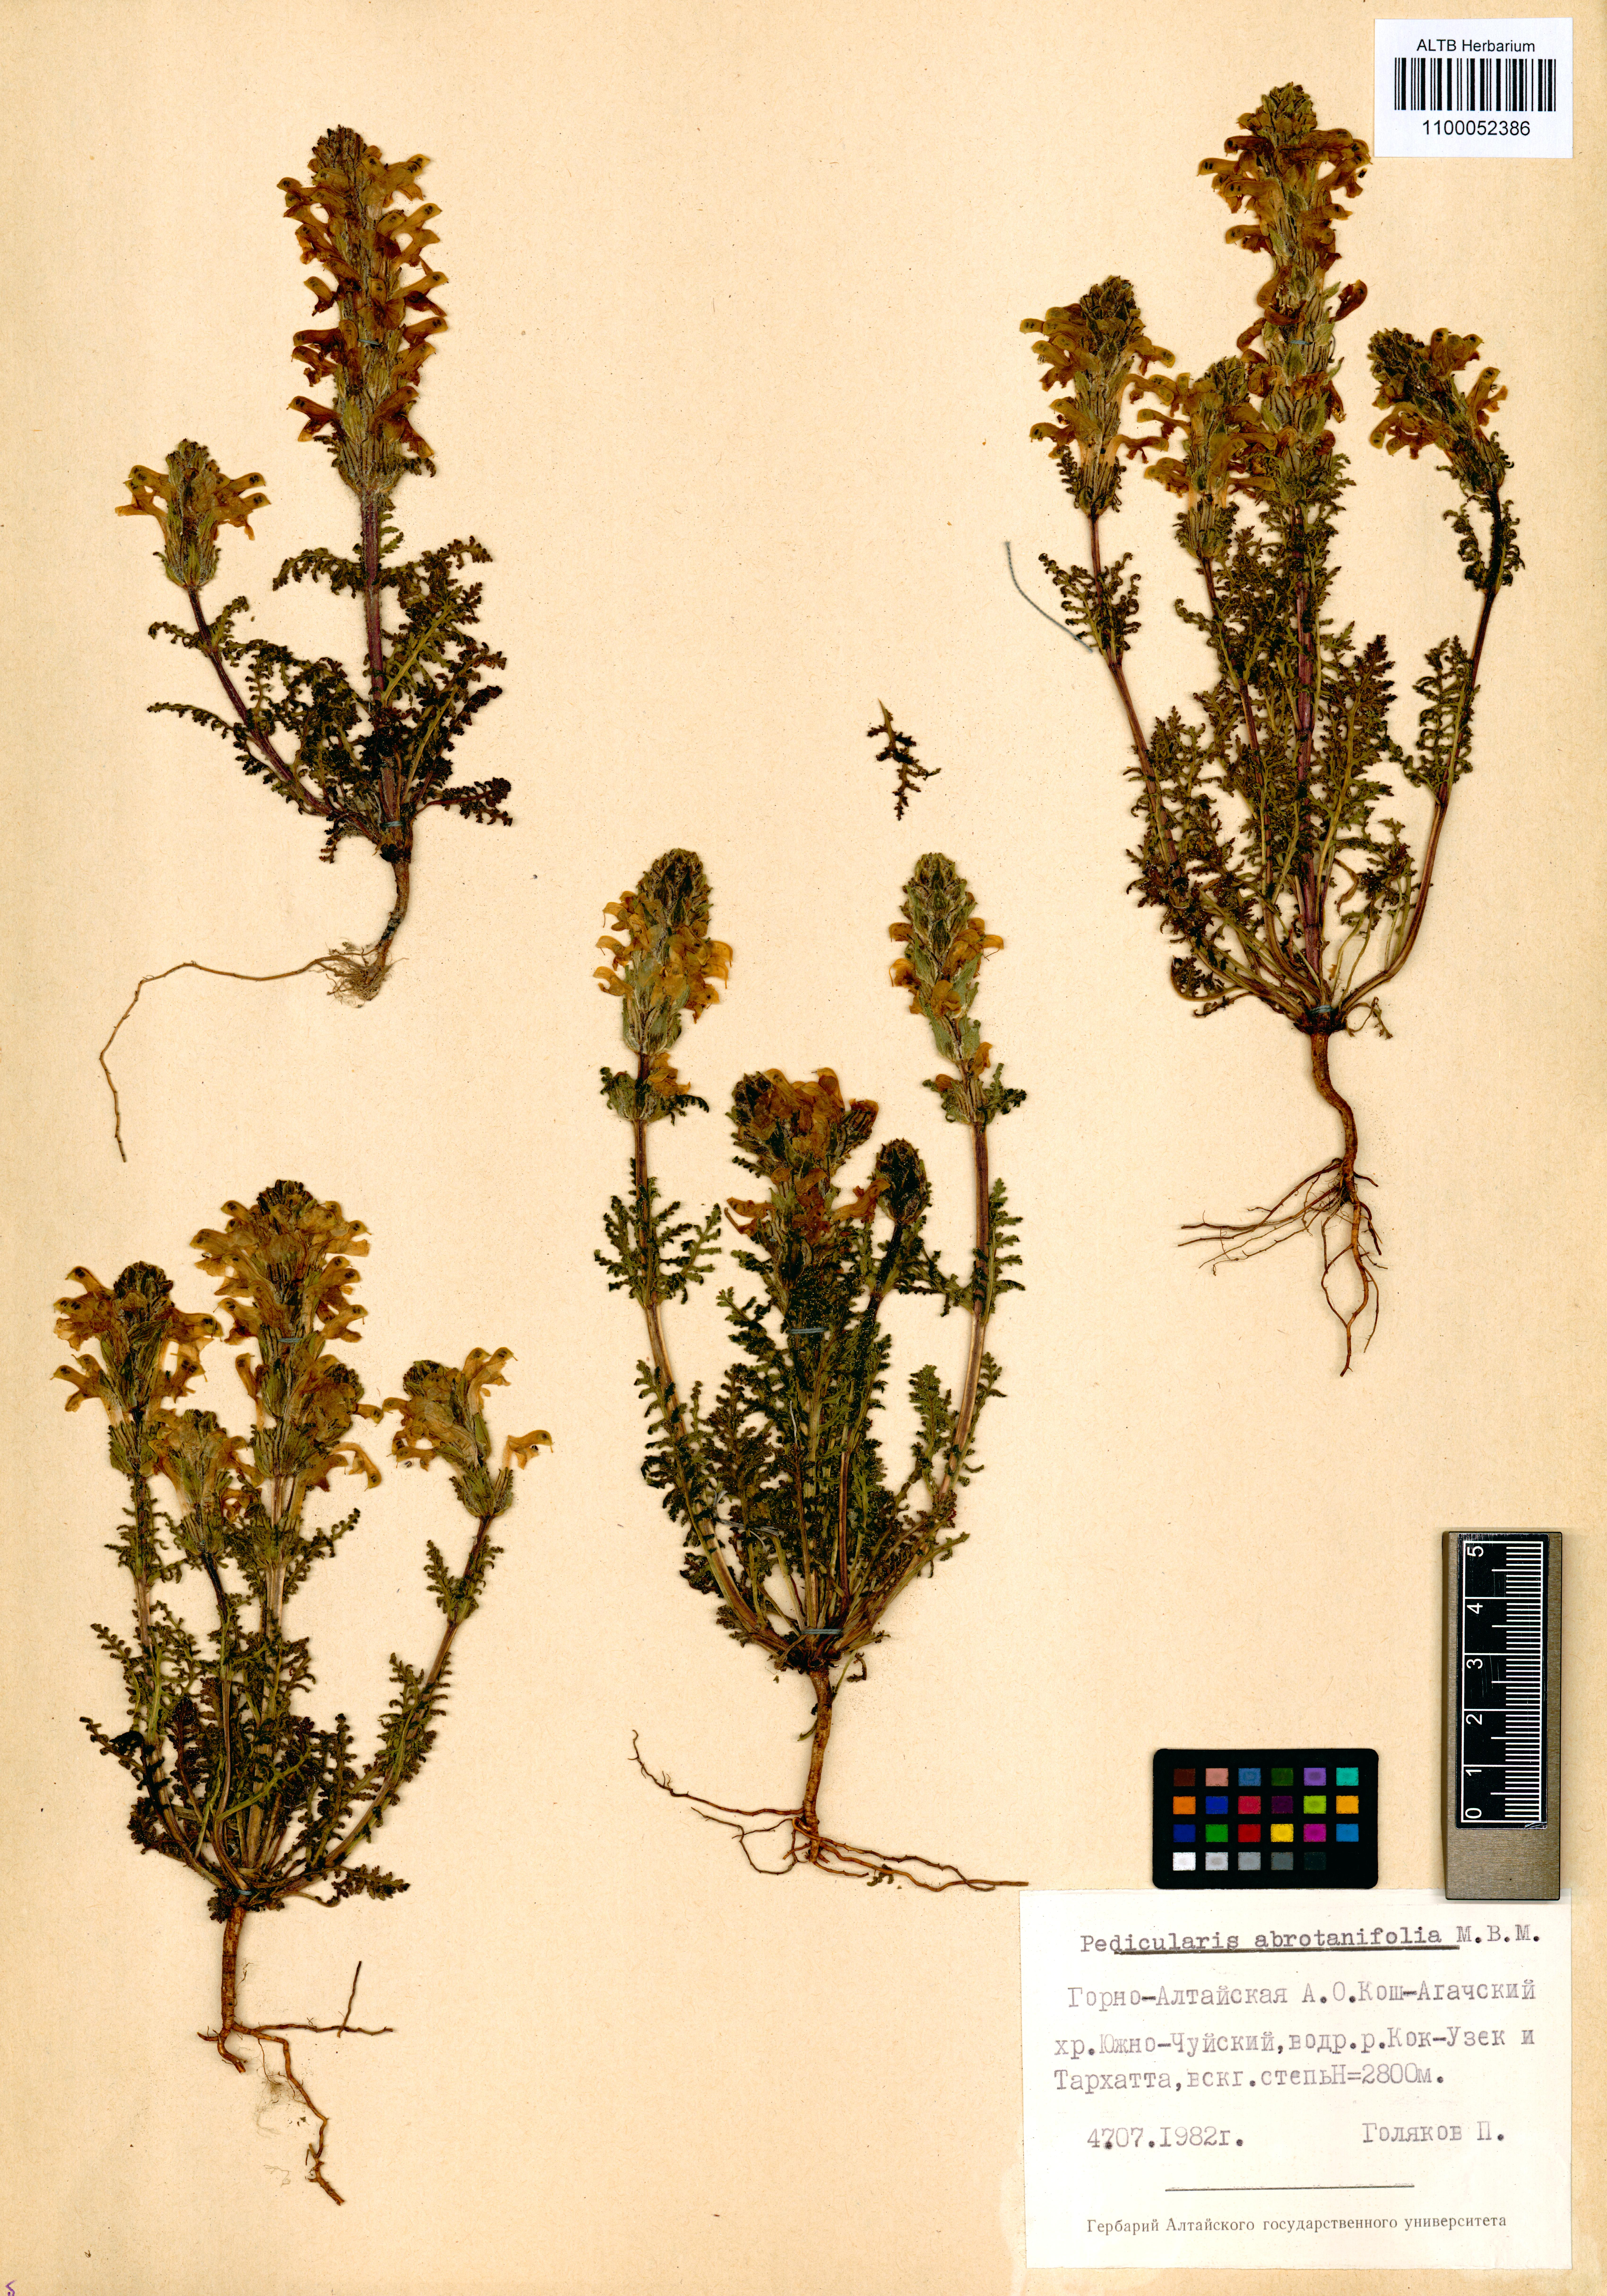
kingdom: Plantae
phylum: Tracheophyta
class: Magnoliopsida
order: Lamiales
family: Orobanchaceae
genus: Pedicularis
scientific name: Pedicularis abrotanifolia
